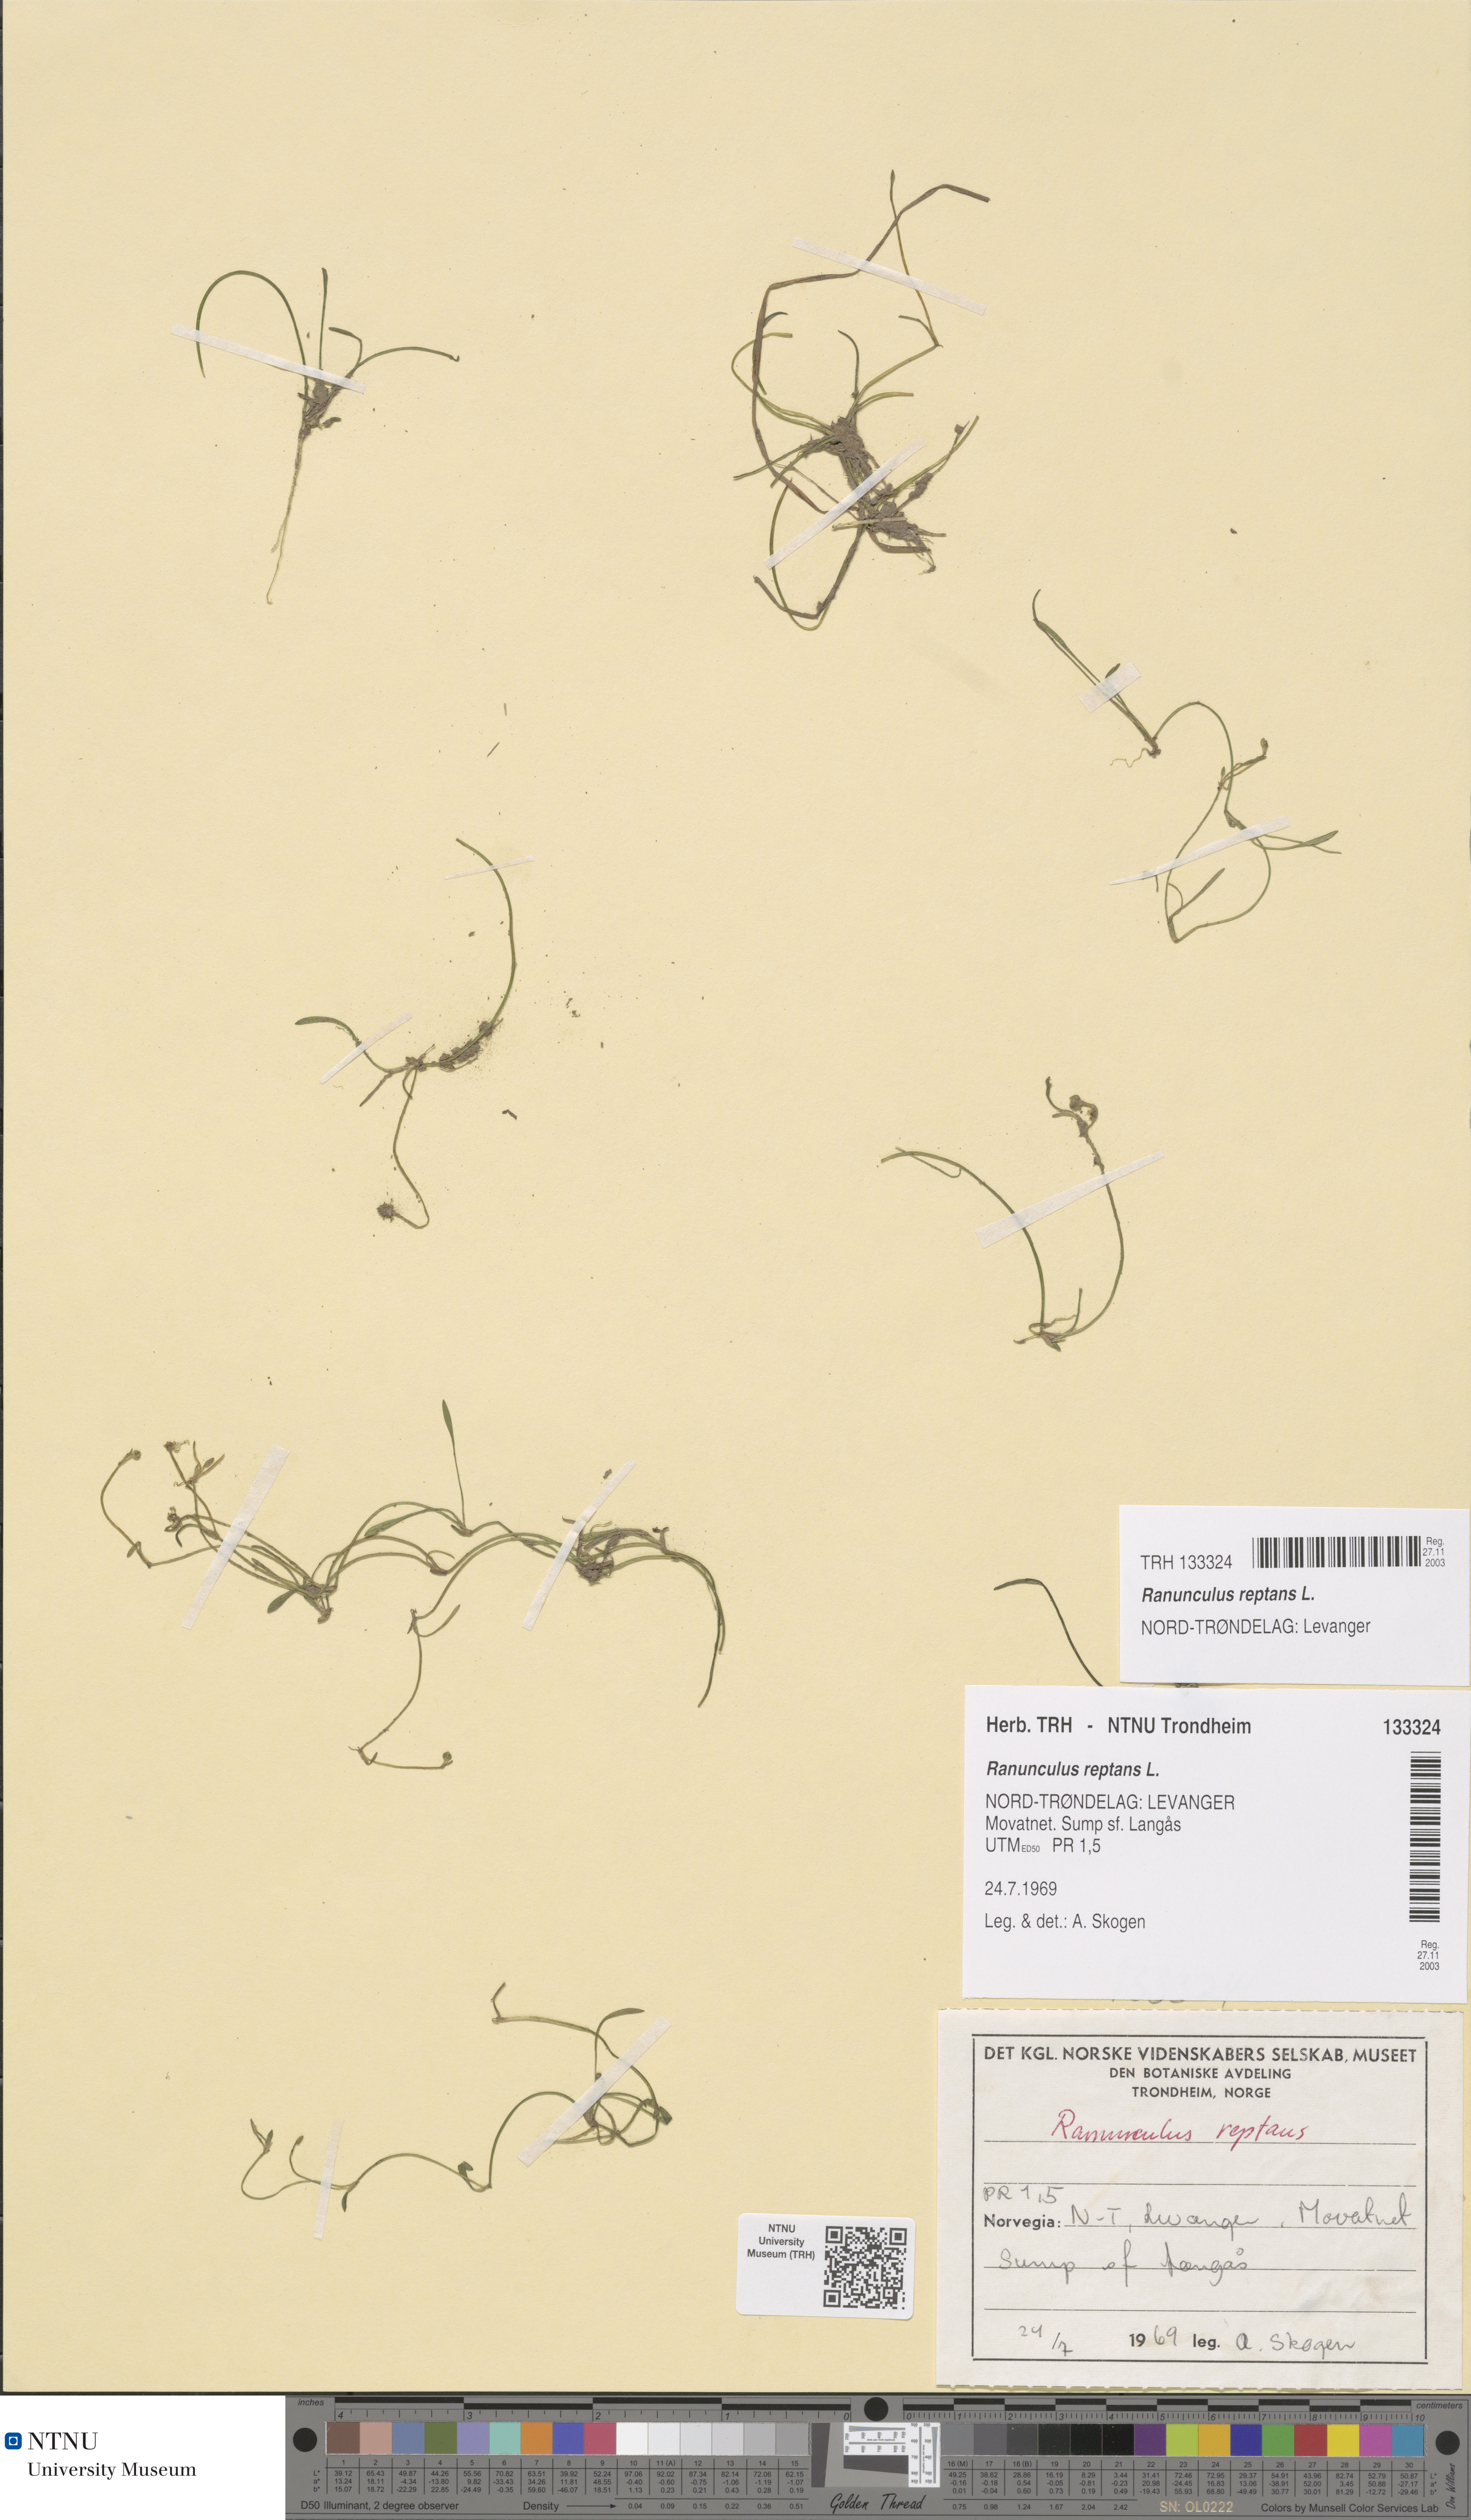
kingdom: Plantae
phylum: Tracheophyta
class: Magnoliopsida
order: Ranunculales
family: Ranunculaceae
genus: Ranunculus
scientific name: Ranunculus reptans
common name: Creeping spearwort
